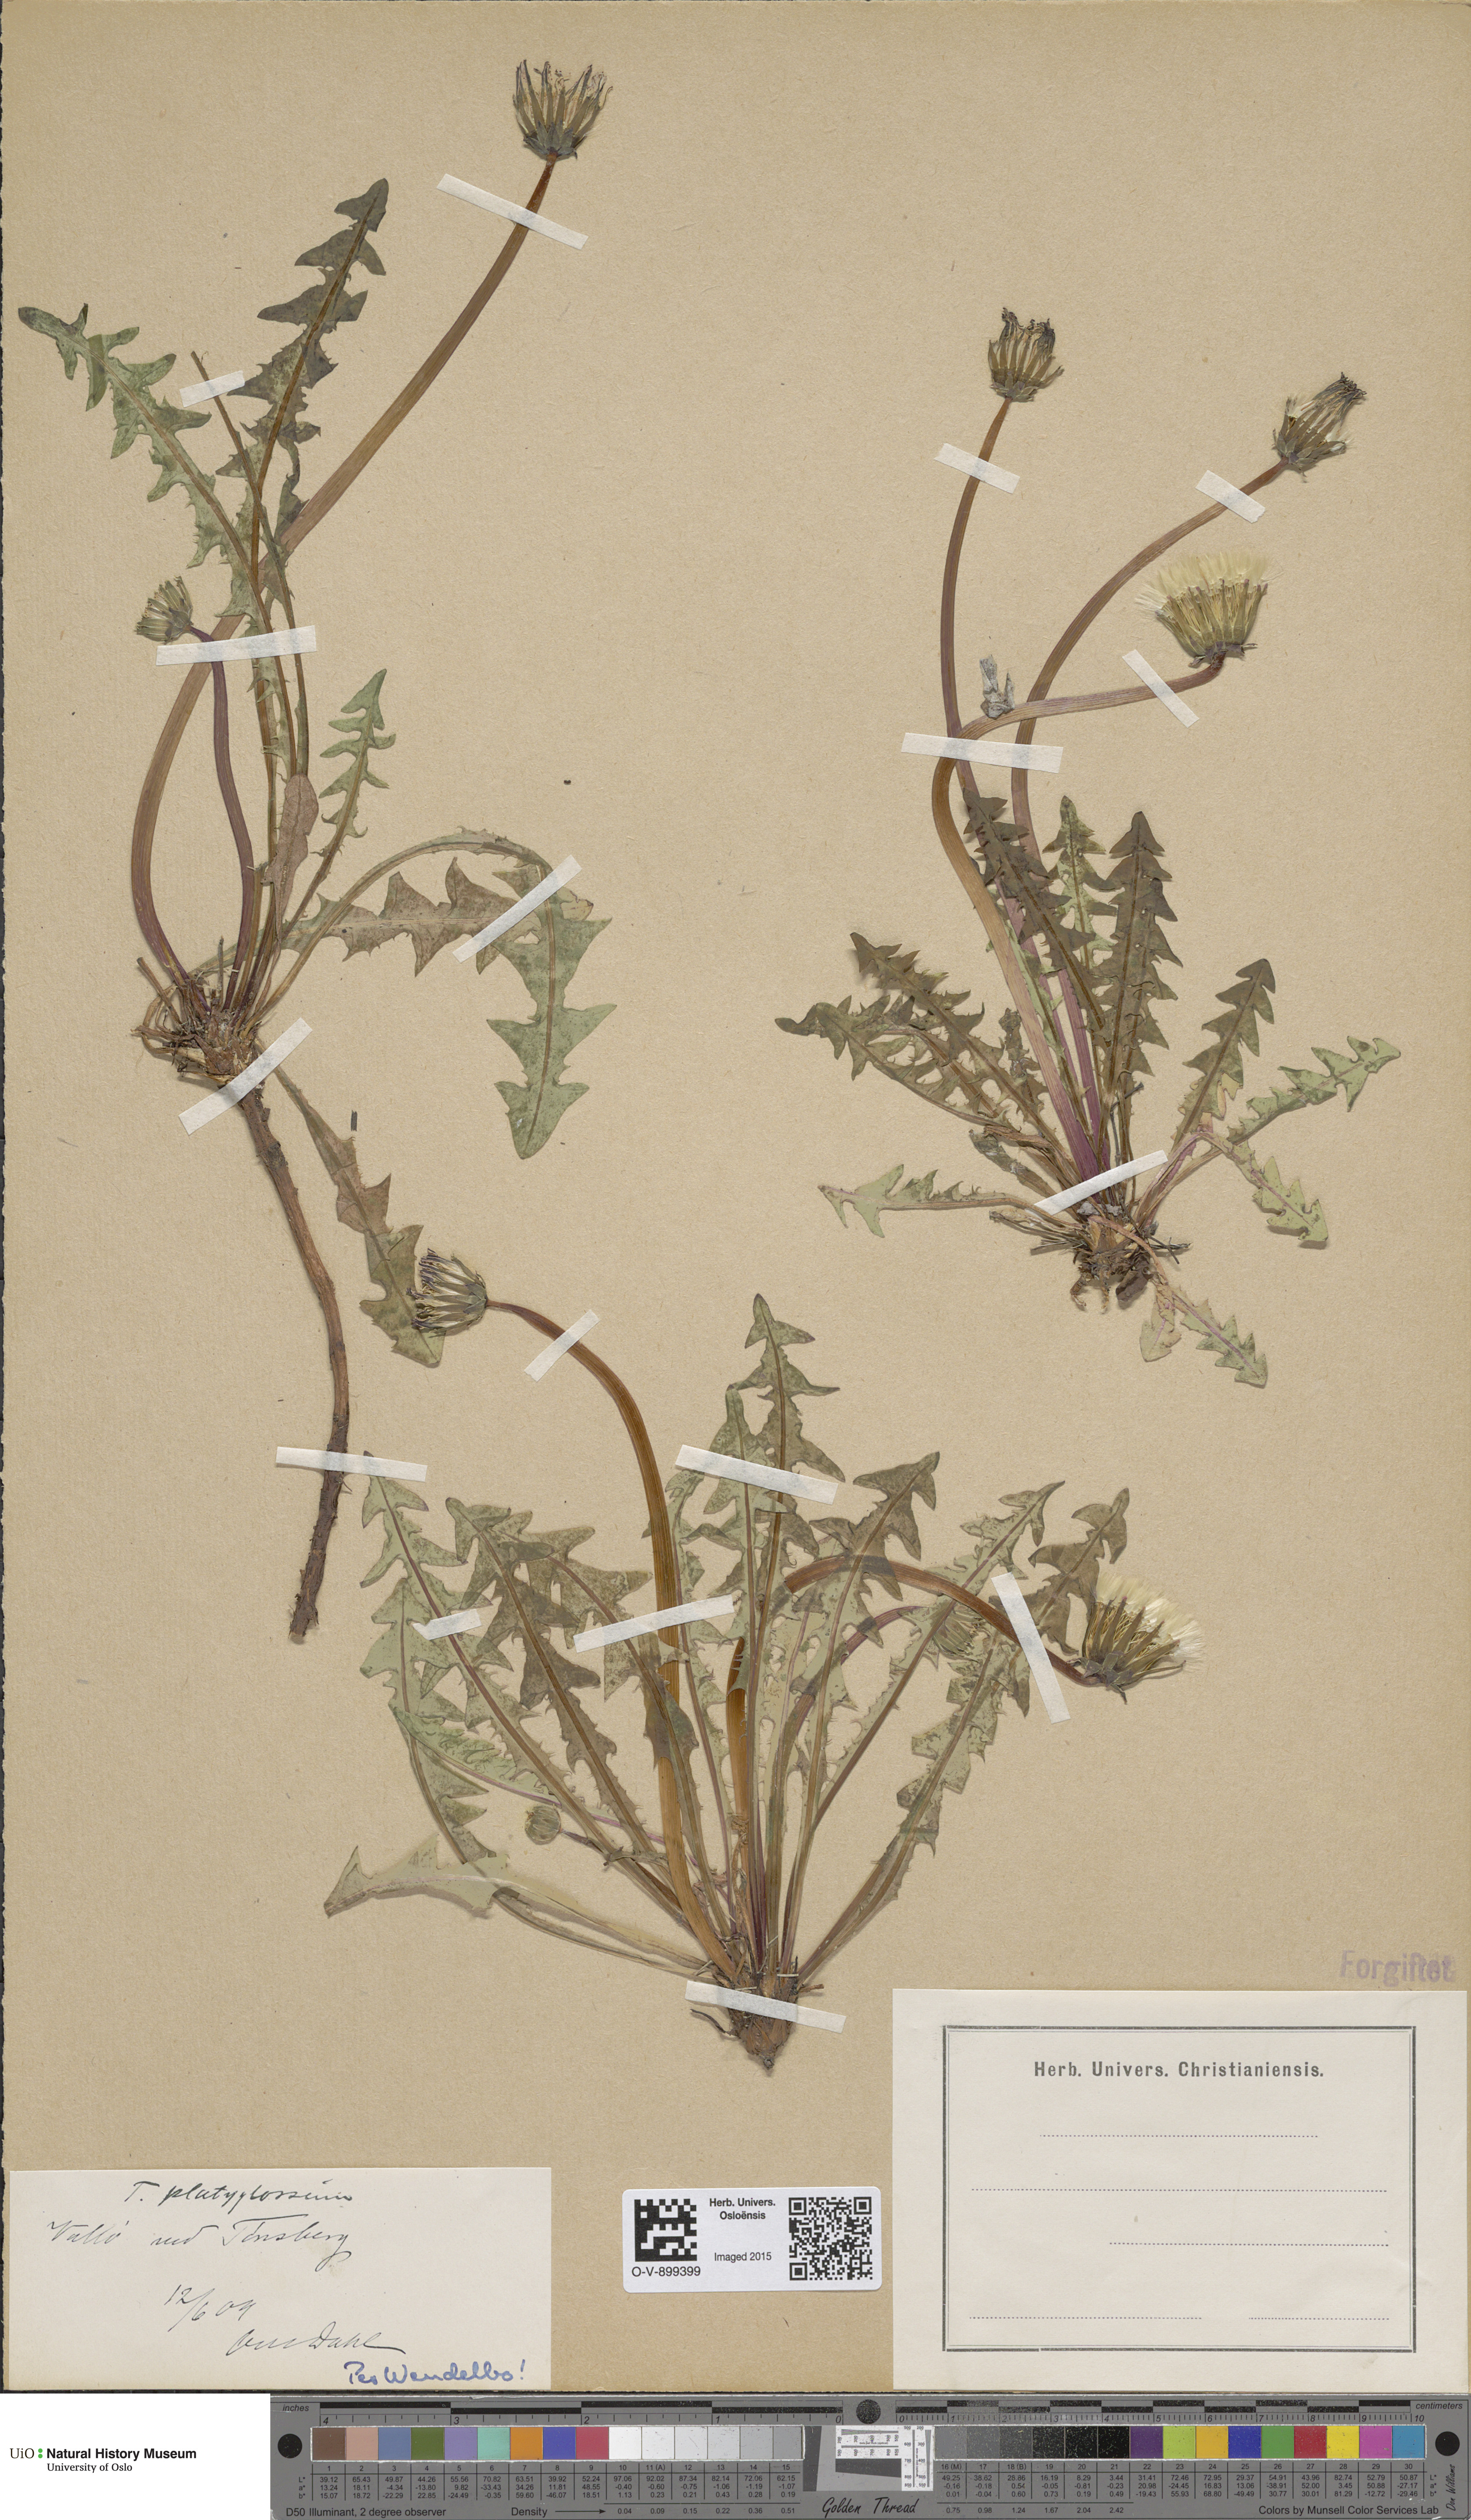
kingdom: Plantae
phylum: Tracheophyta
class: Magnoliopsida
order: Asterales
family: Asteraceae
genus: Taraxacum
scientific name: Taraxacum platyglossum
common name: Tongue-leaved dandelion
